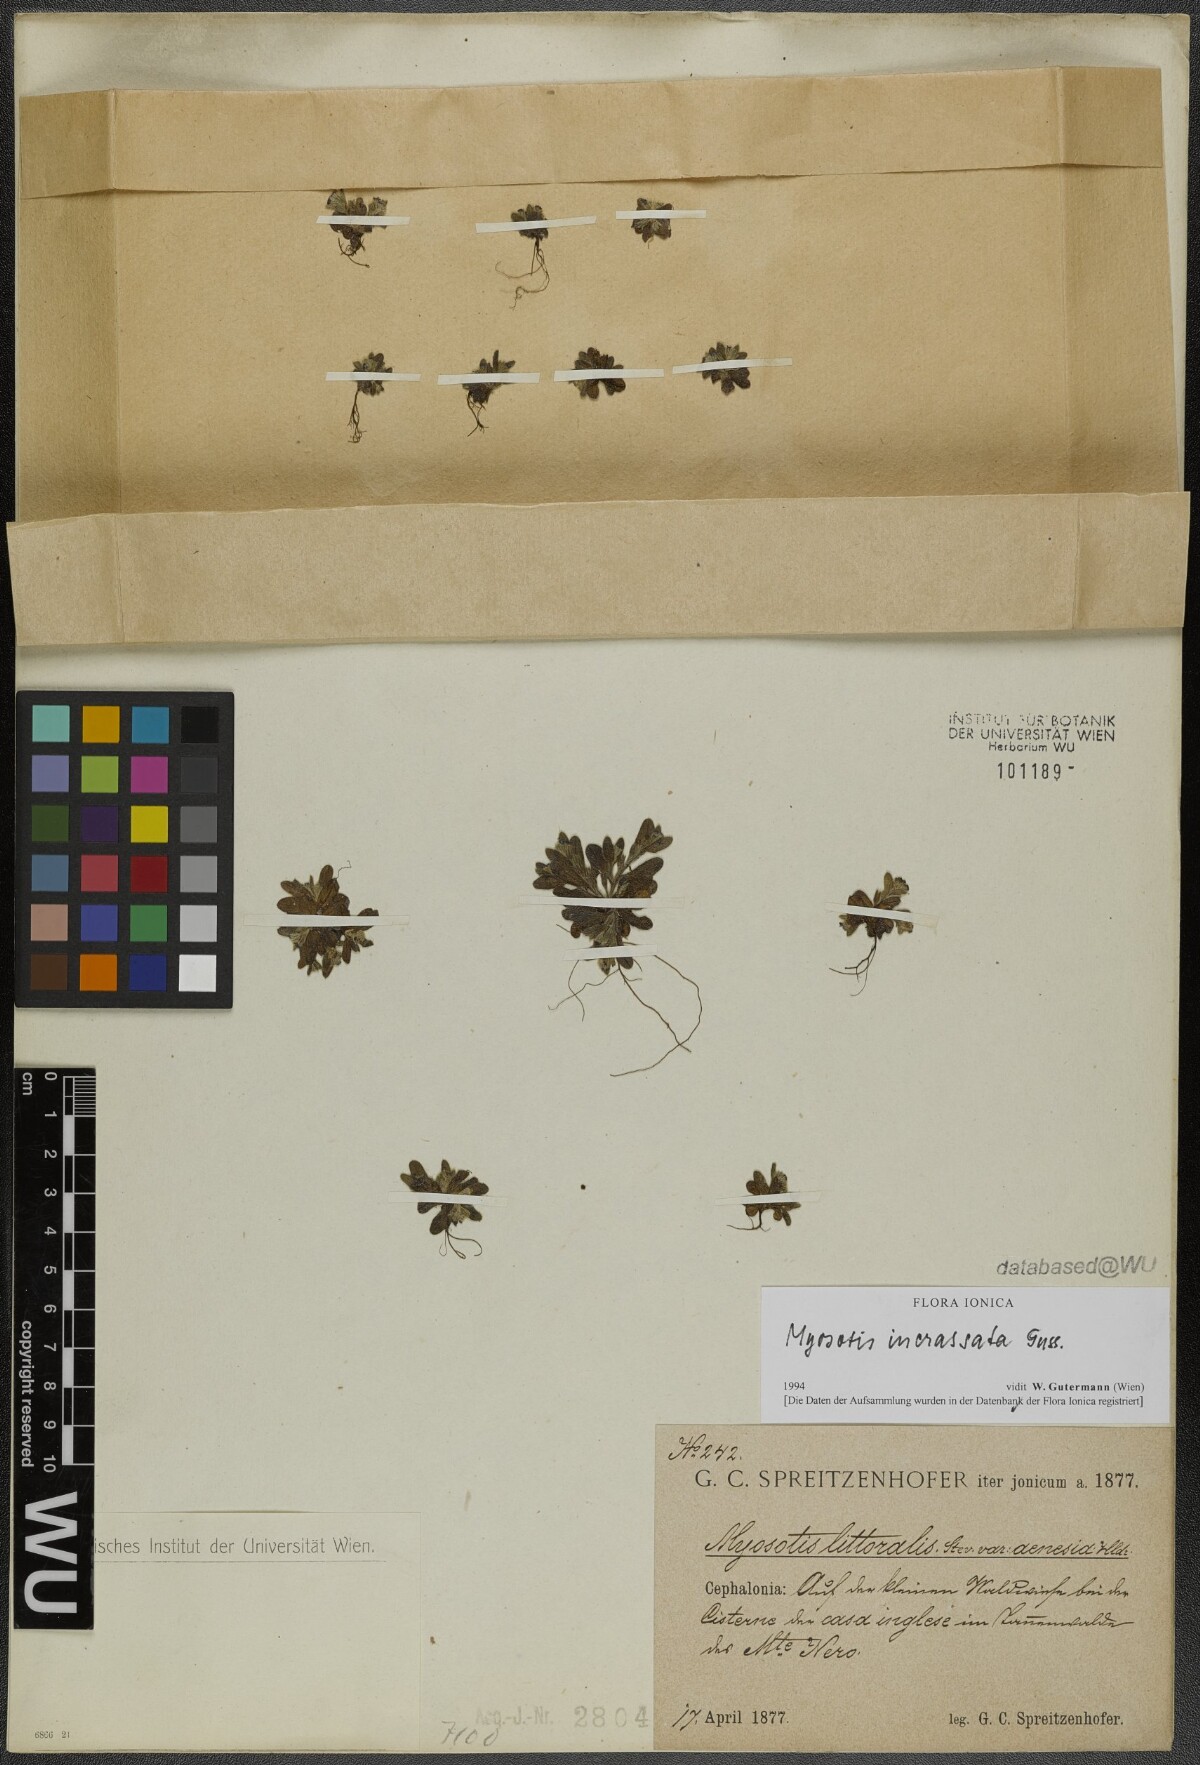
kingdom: Plantae
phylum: Tracheophyta
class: Magnoliopsida
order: Boraginales
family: Boraginaceae
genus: Myosotis
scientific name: Myosotis incrassata
